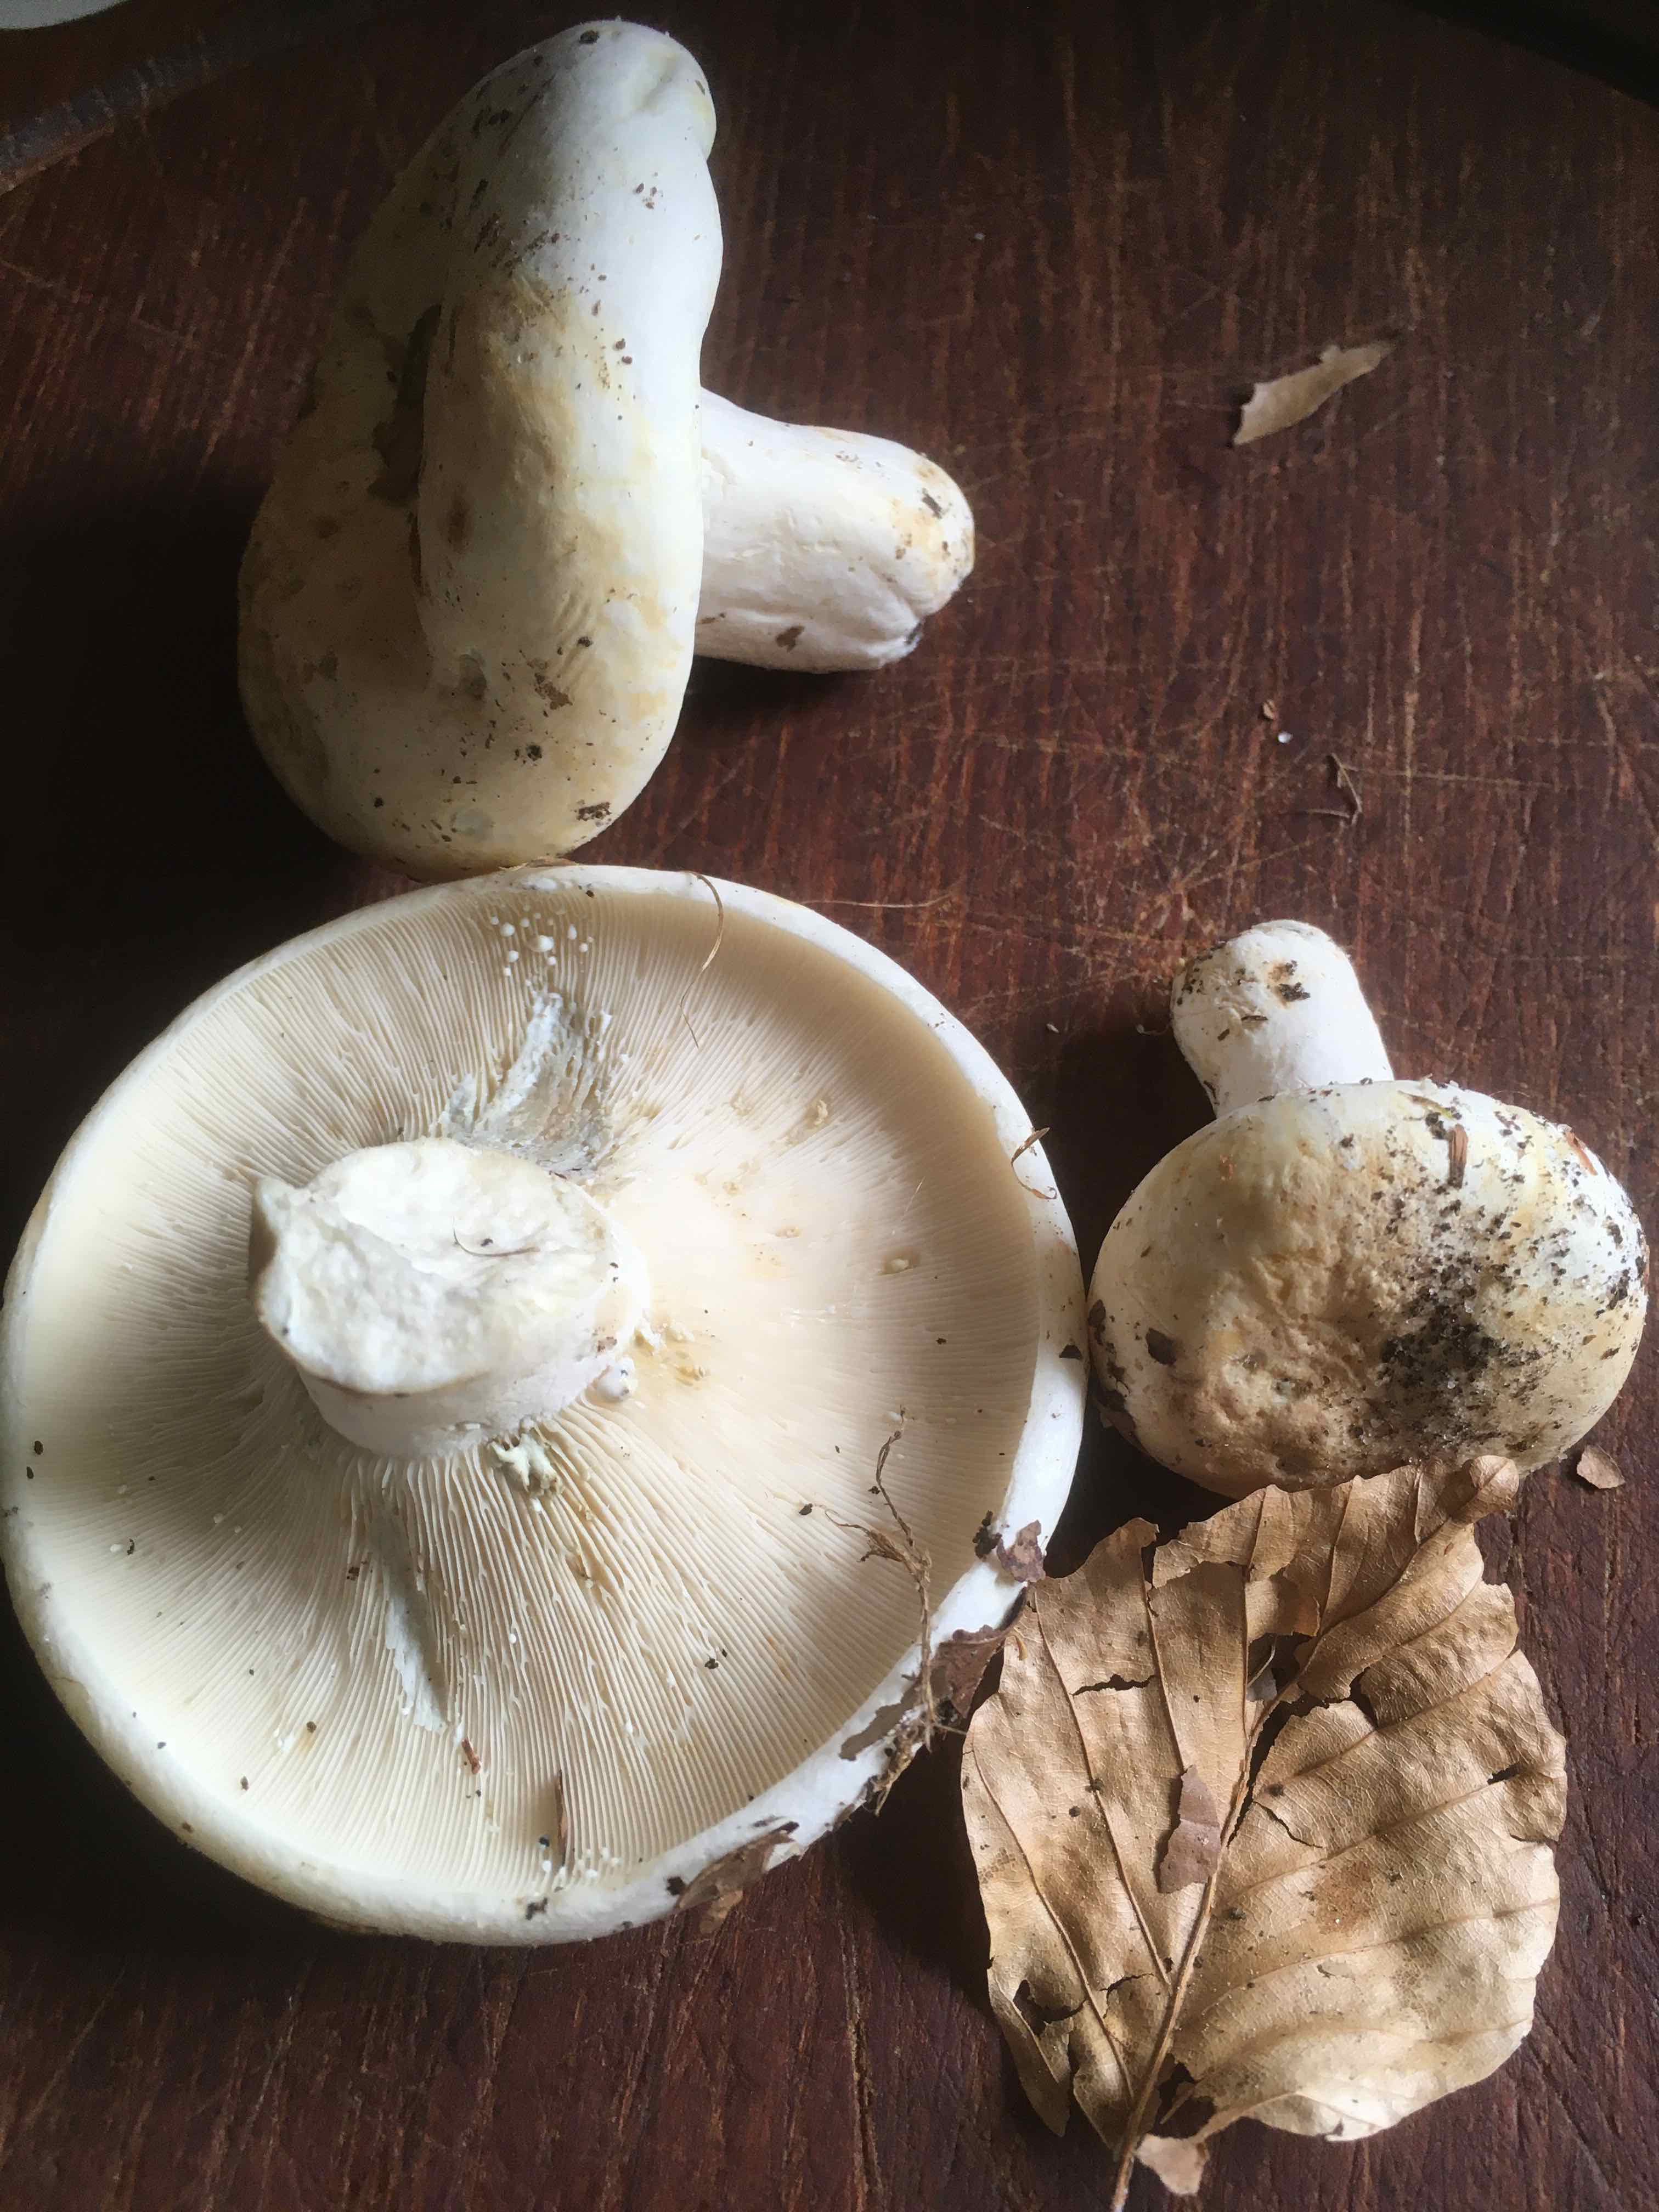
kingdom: Fungi
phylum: Basidiomycota
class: Agaricomycetes
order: Russulales
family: Russulaceae
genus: Lactifluus
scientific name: Lactifluus
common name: mælkehat
